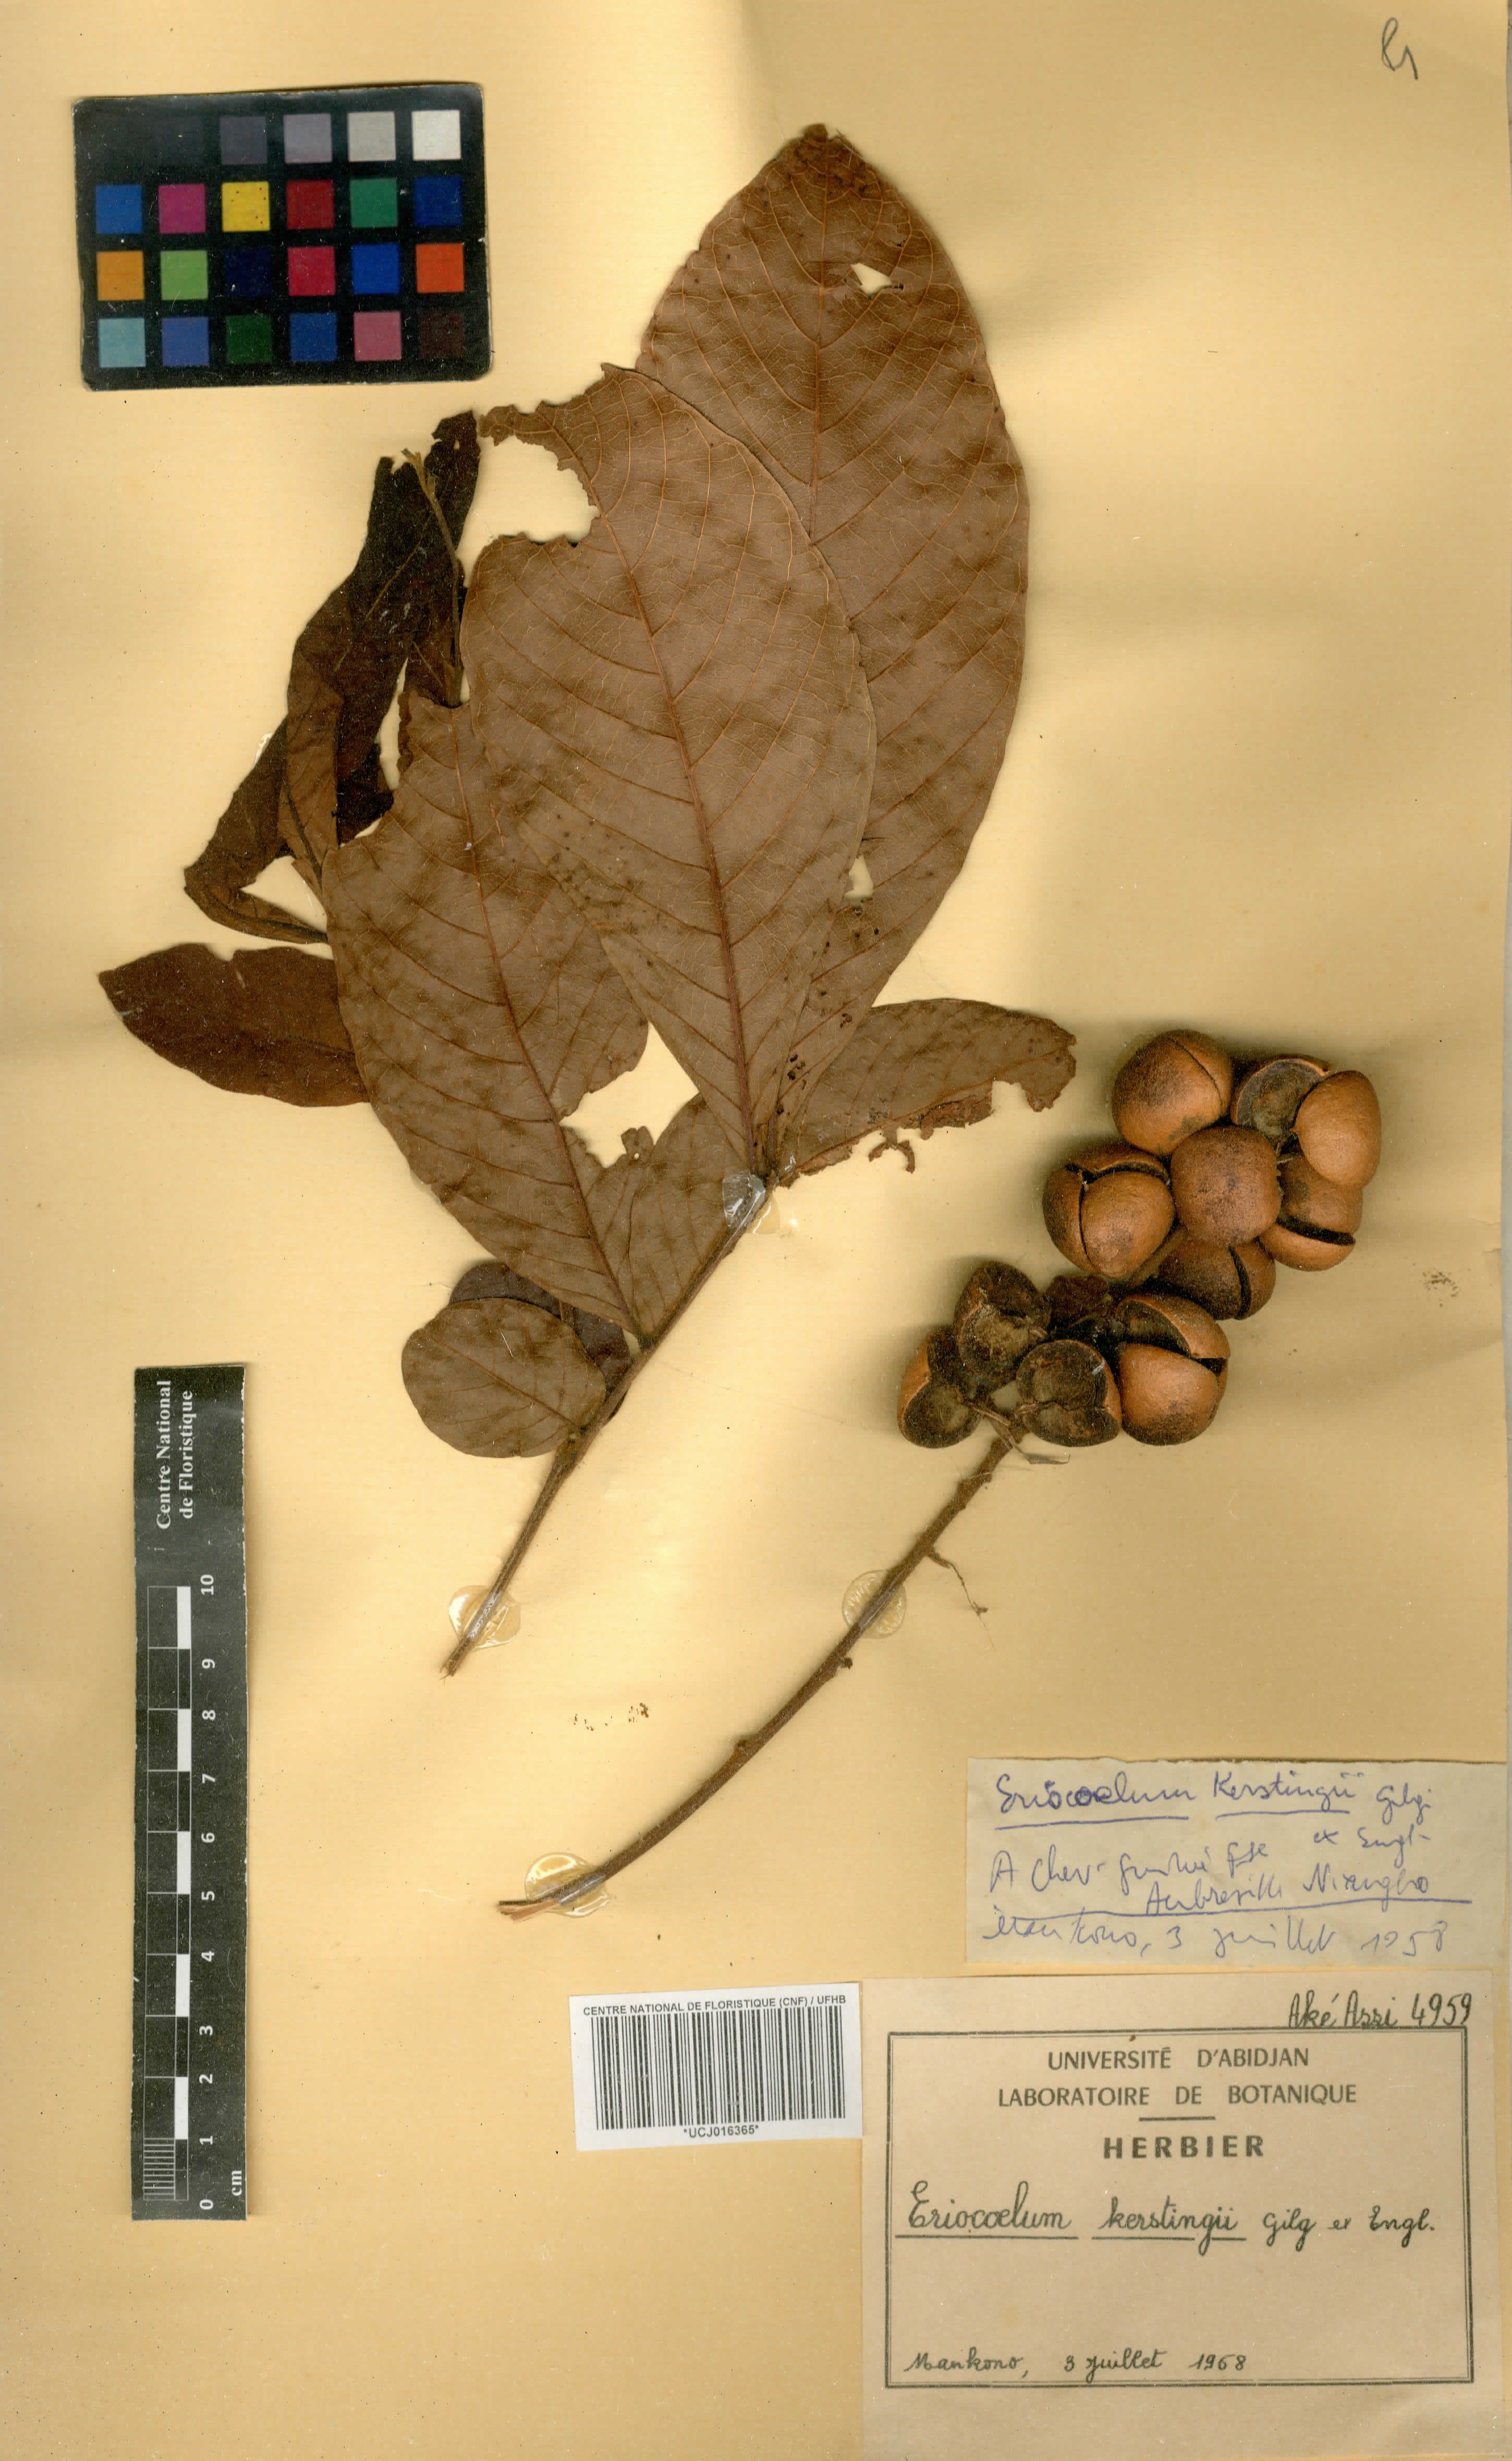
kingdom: Plantae
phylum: Tracheophyta
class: Magnoliopsida
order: Sapindales
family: Sapindaceae
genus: Eriocoelum
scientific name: Eriocoelum kerstingii
